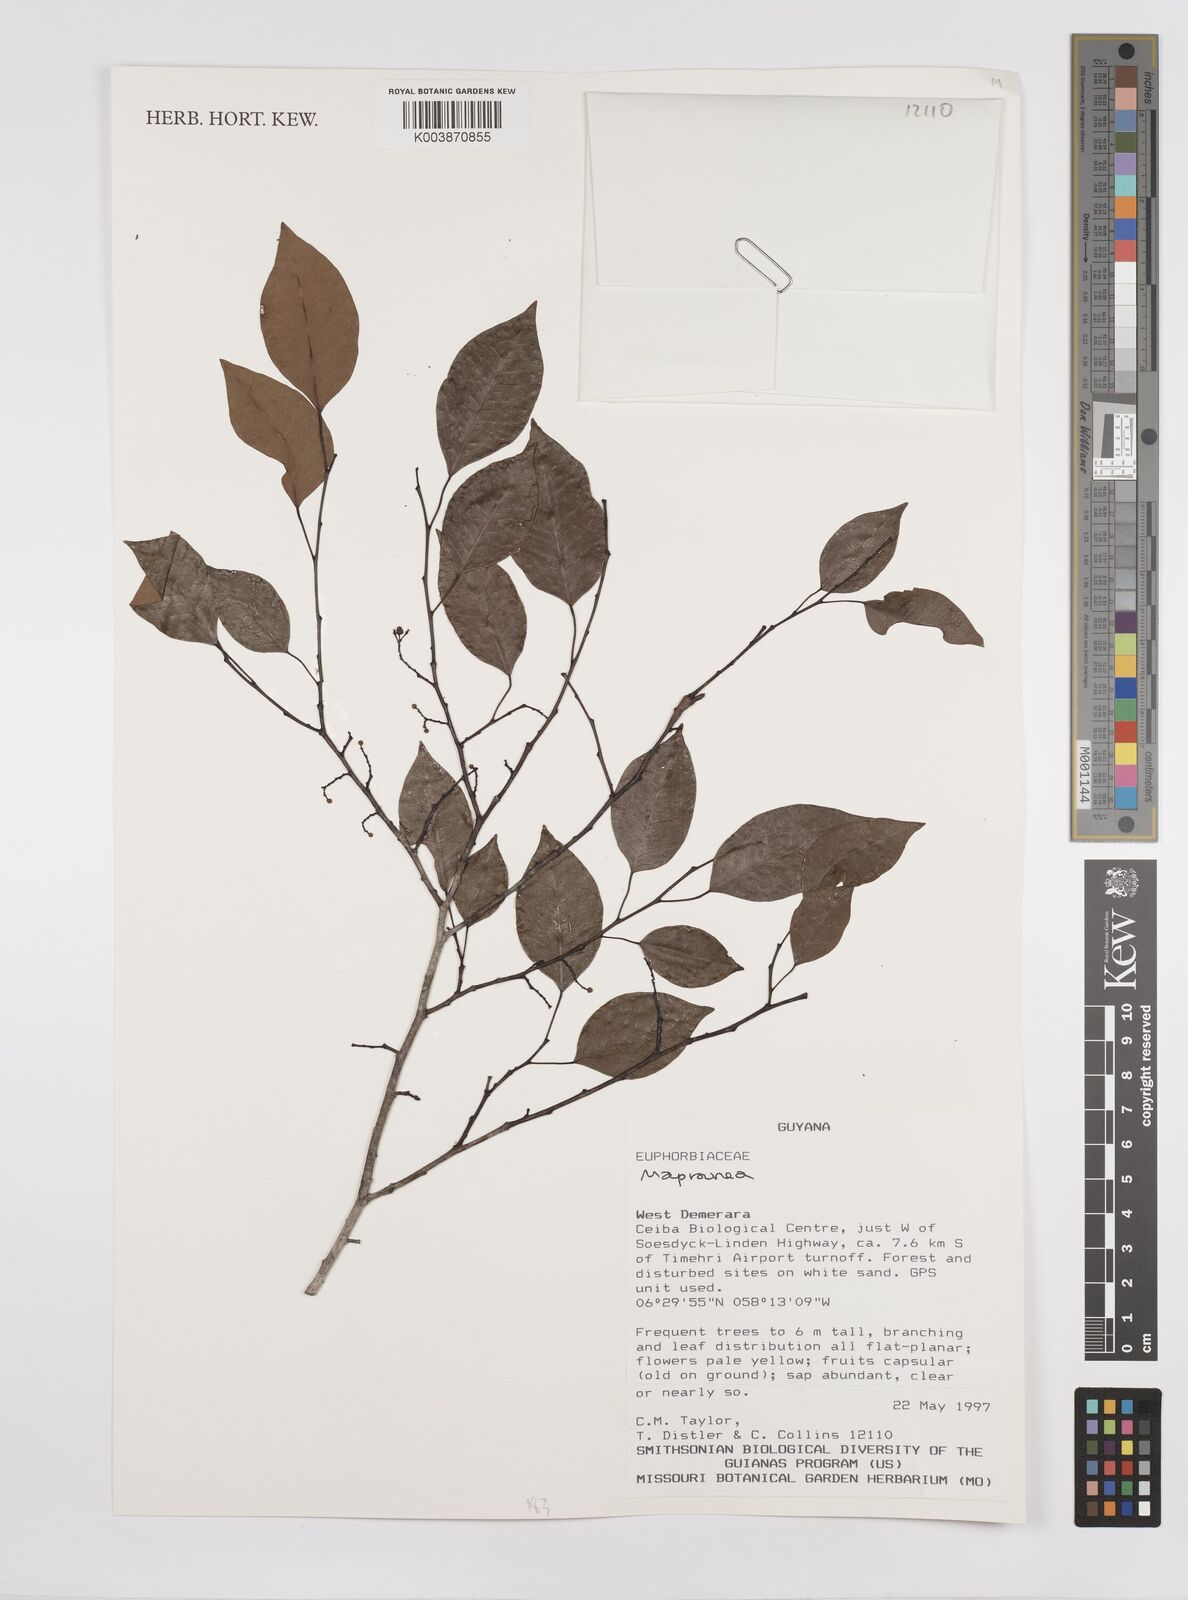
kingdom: Plantae
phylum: Tracheophyta
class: Magnoliopsida
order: Malpighiales
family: Euphorbiaceae
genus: Maprounea
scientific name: Maprounea
